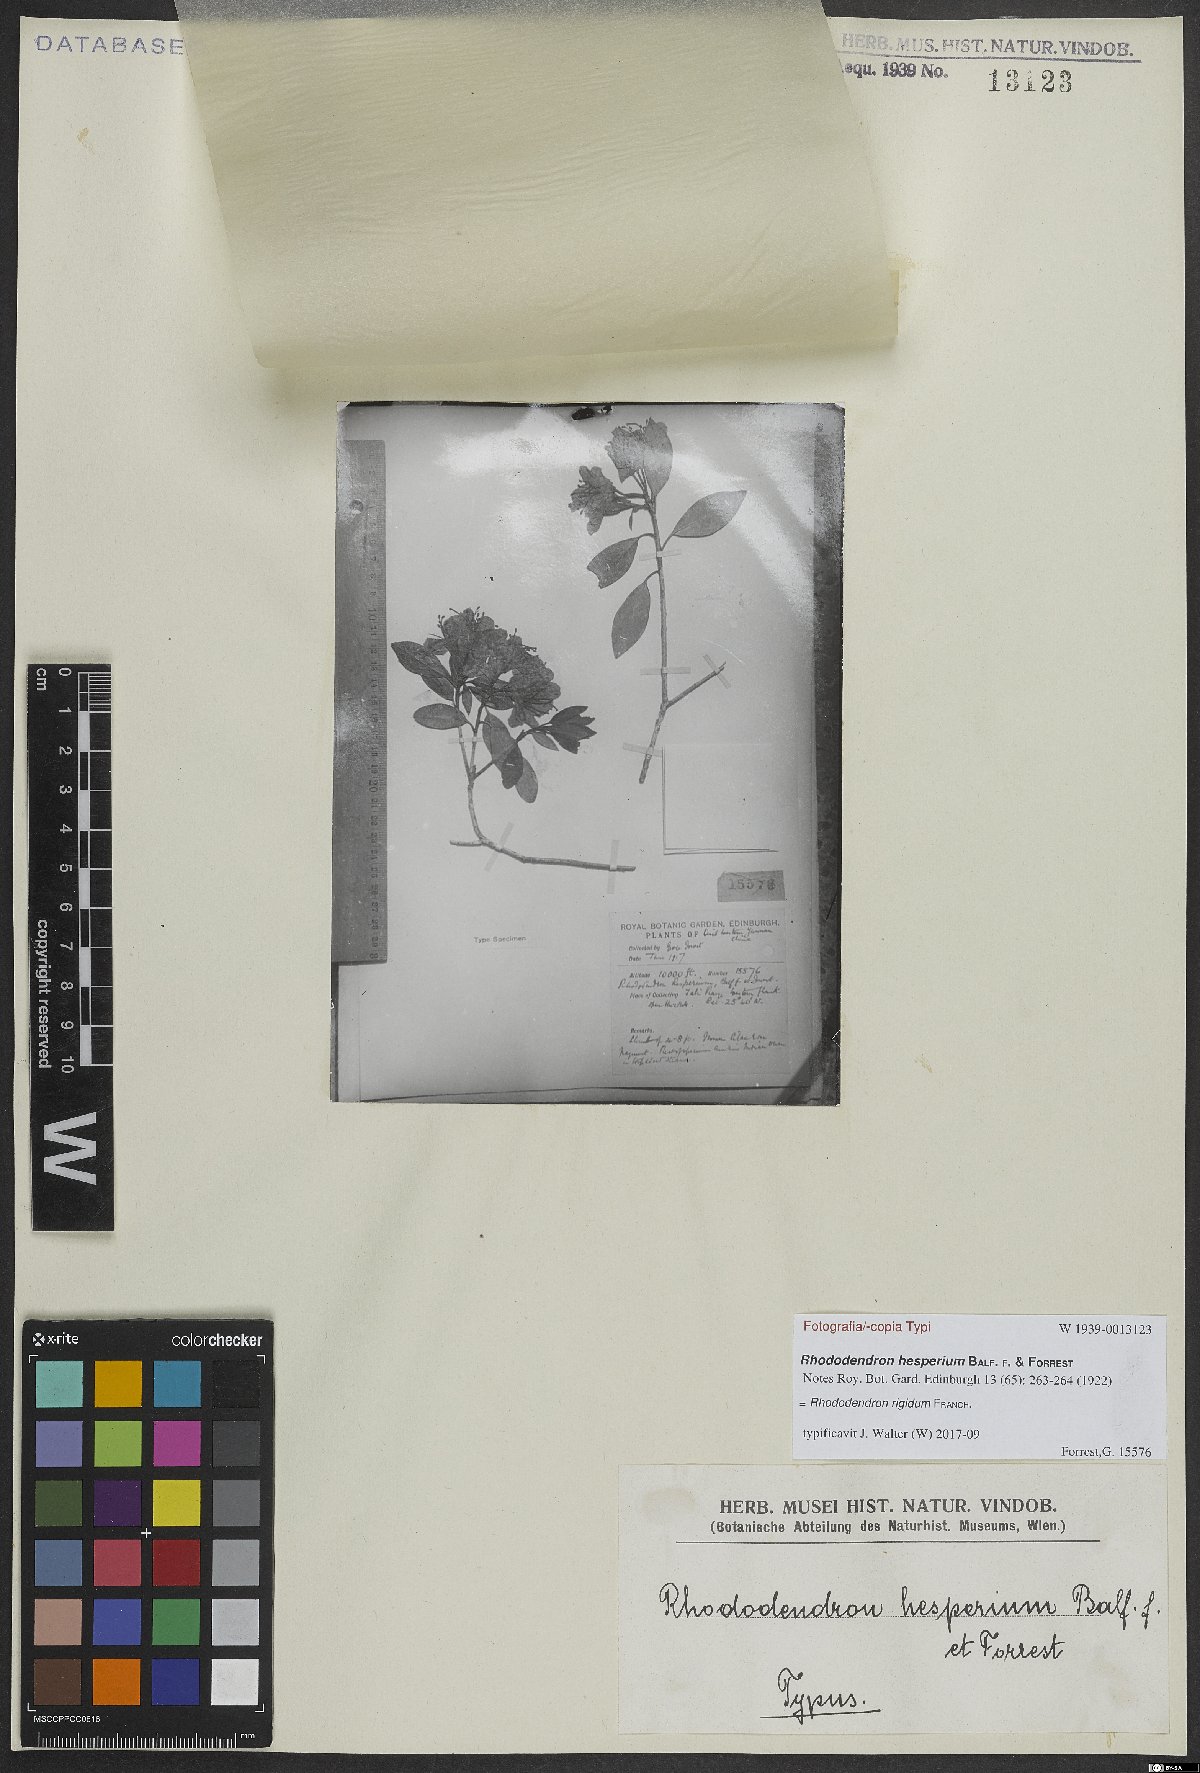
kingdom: Plantae
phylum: Tracheophyta
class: Magnoliopsida
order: Ericales
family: Ericaceae
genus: Rhododendron
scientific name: Rhododendron rigidum
